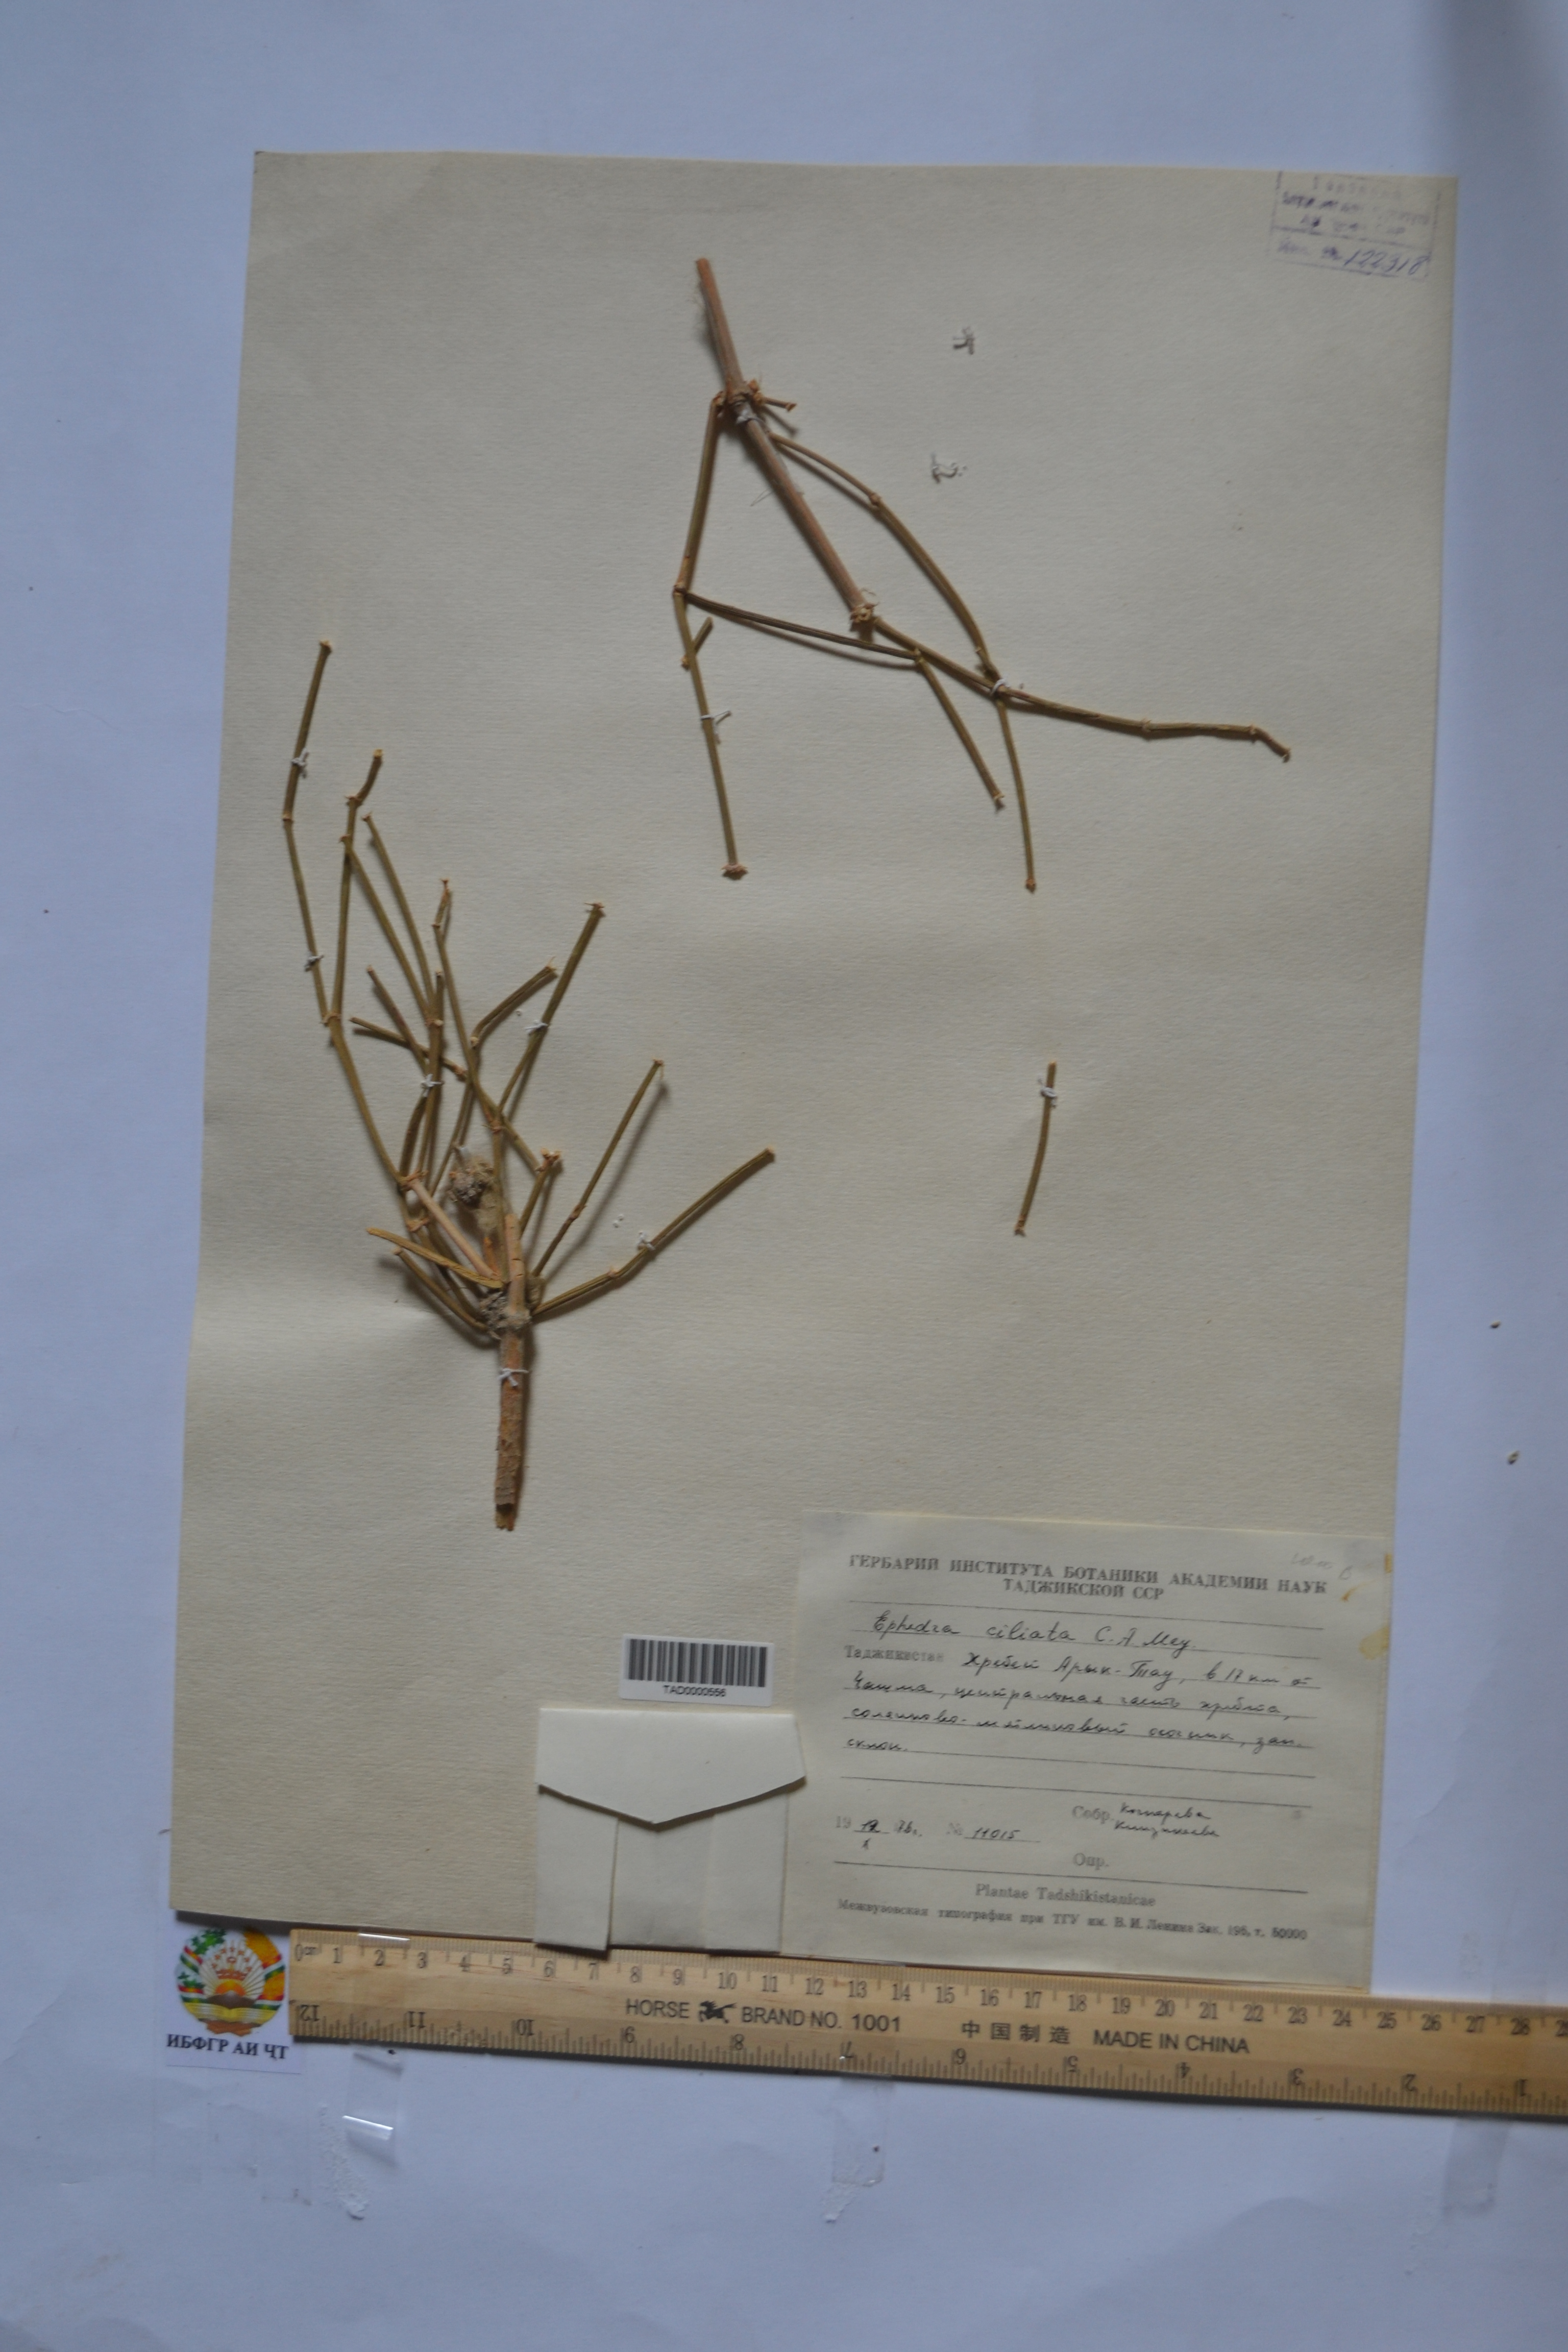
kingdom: Plantae
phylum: Tracheophyta
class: Gnetopsida
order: Ephedrales
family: Ephedraceae
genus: Ephedra
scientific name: Ephedra ciliata
